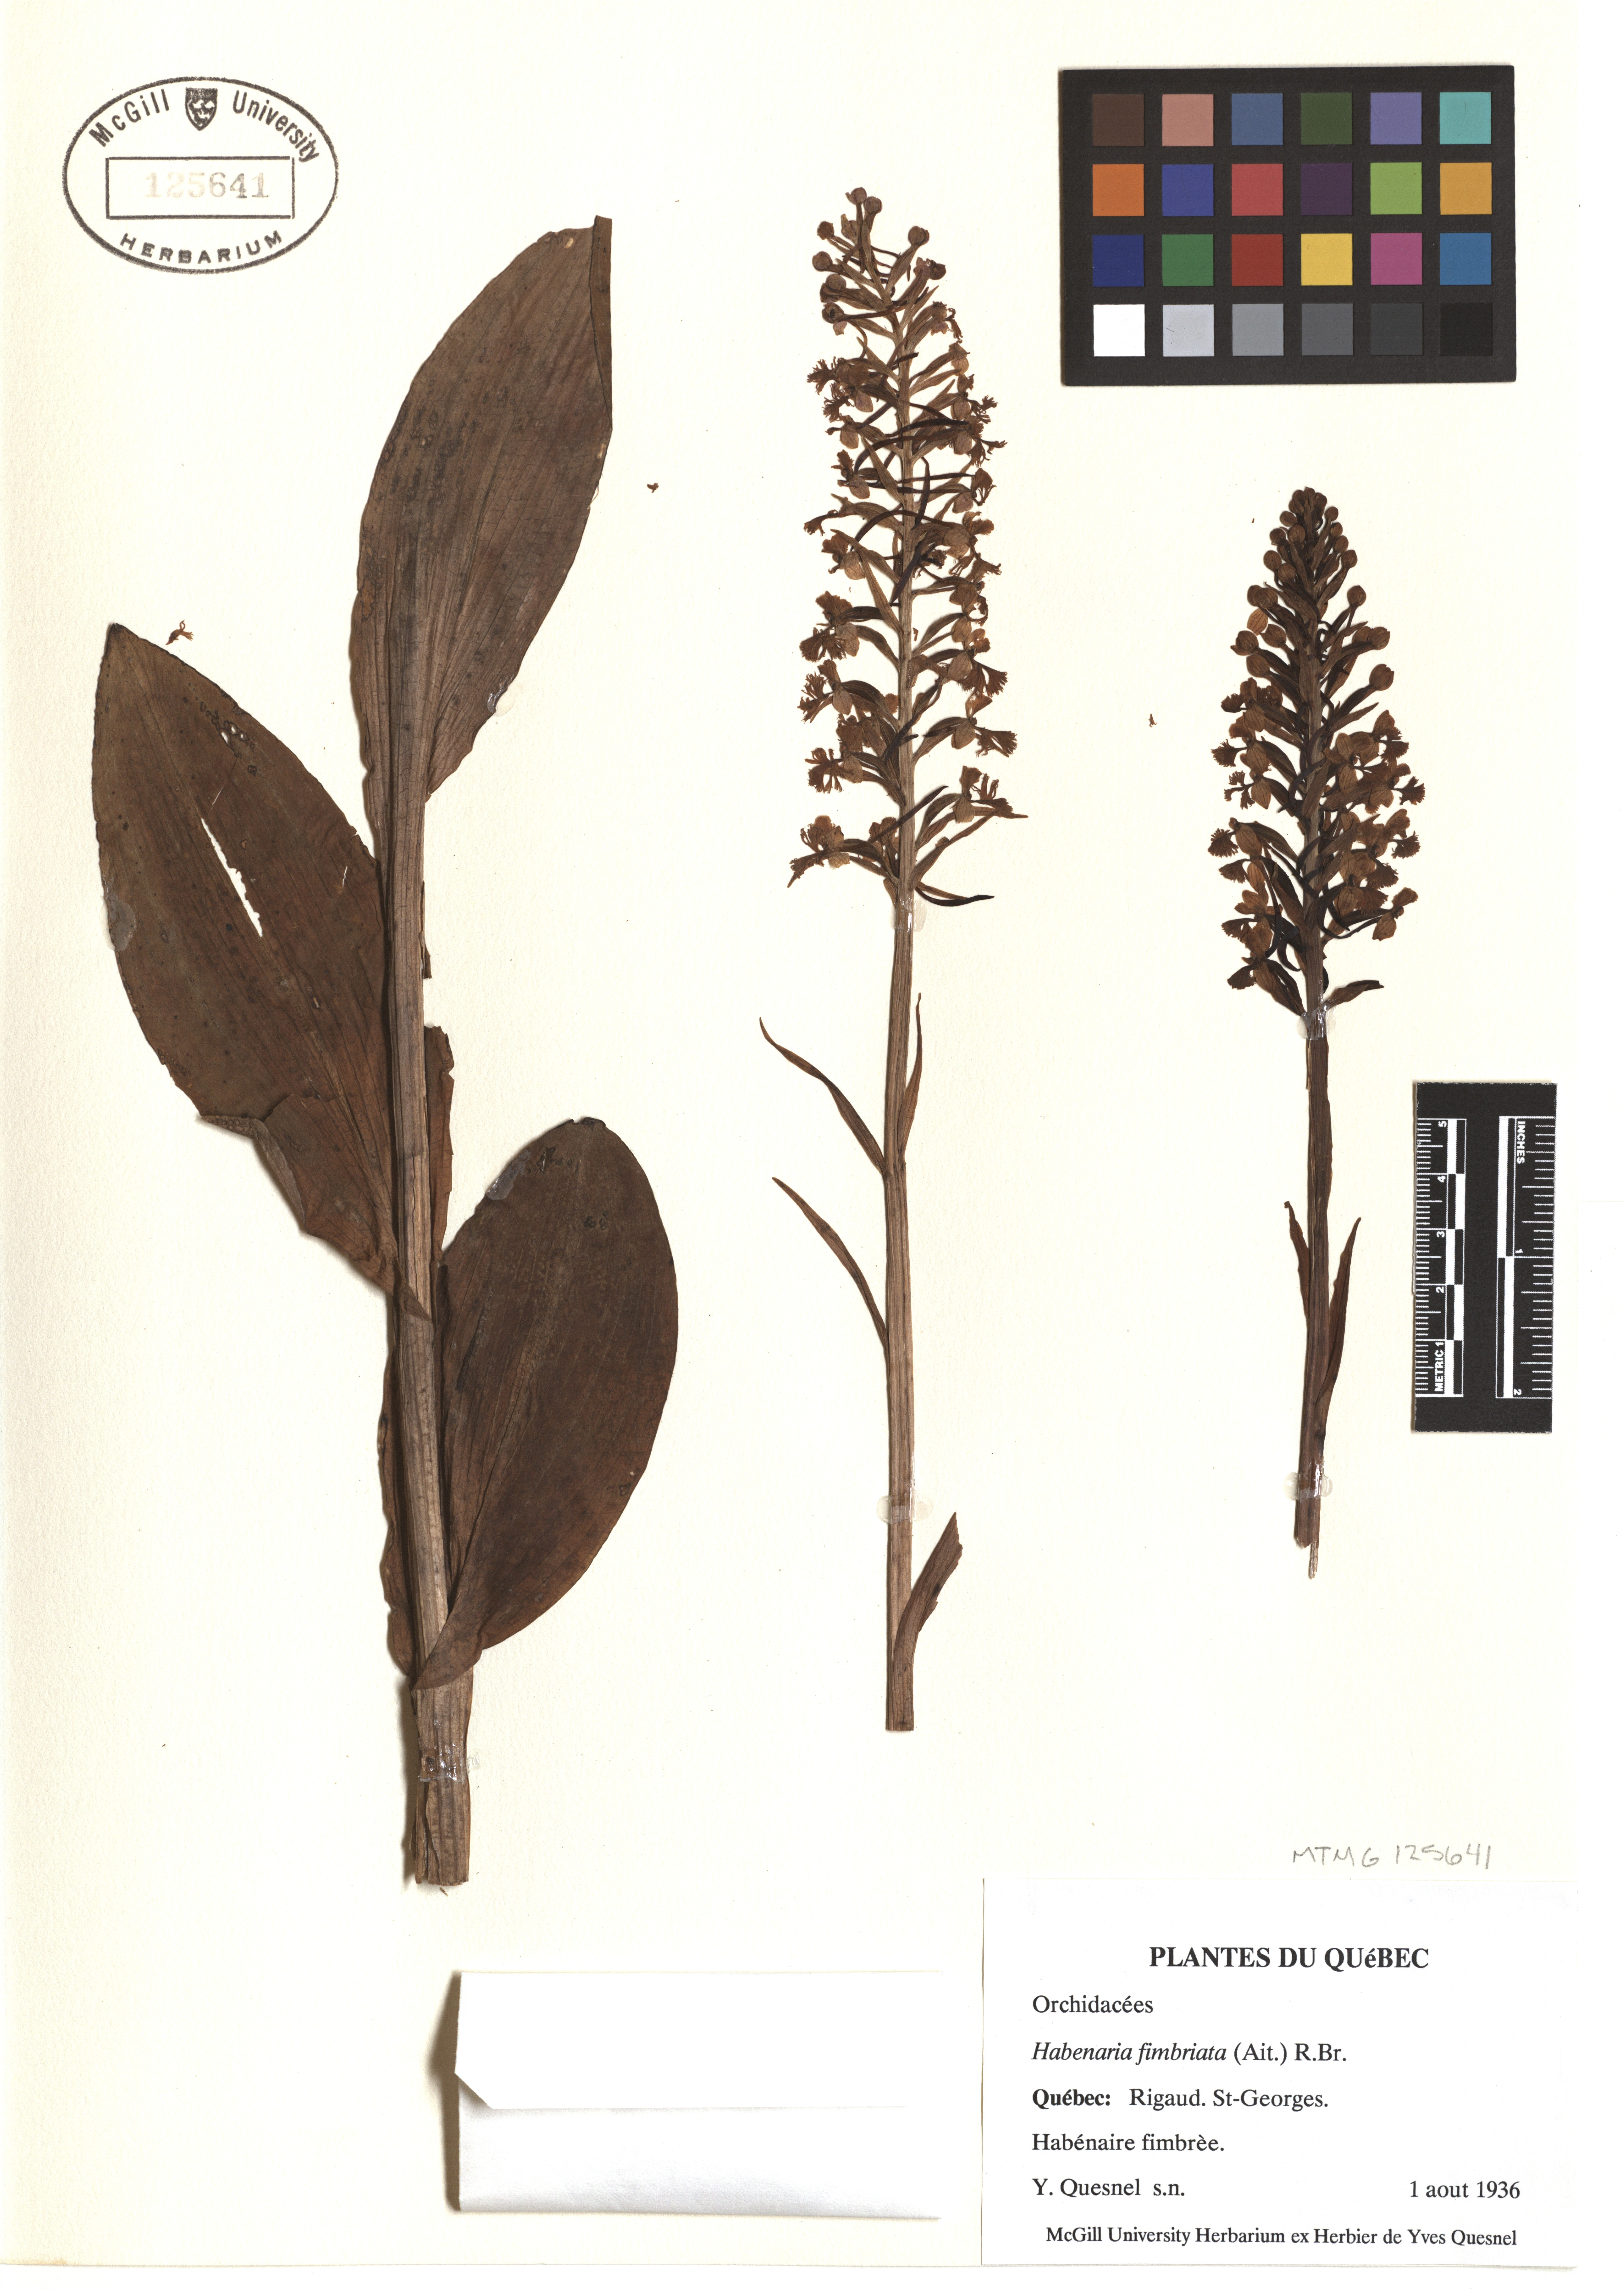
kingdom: Plantae
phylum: Tracheophyta
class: Liliopsida
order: Asparagales
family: Orchidaceae
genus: Platanthera
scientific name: Platanthera grandiflora
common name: Greater purple fringed orchid
